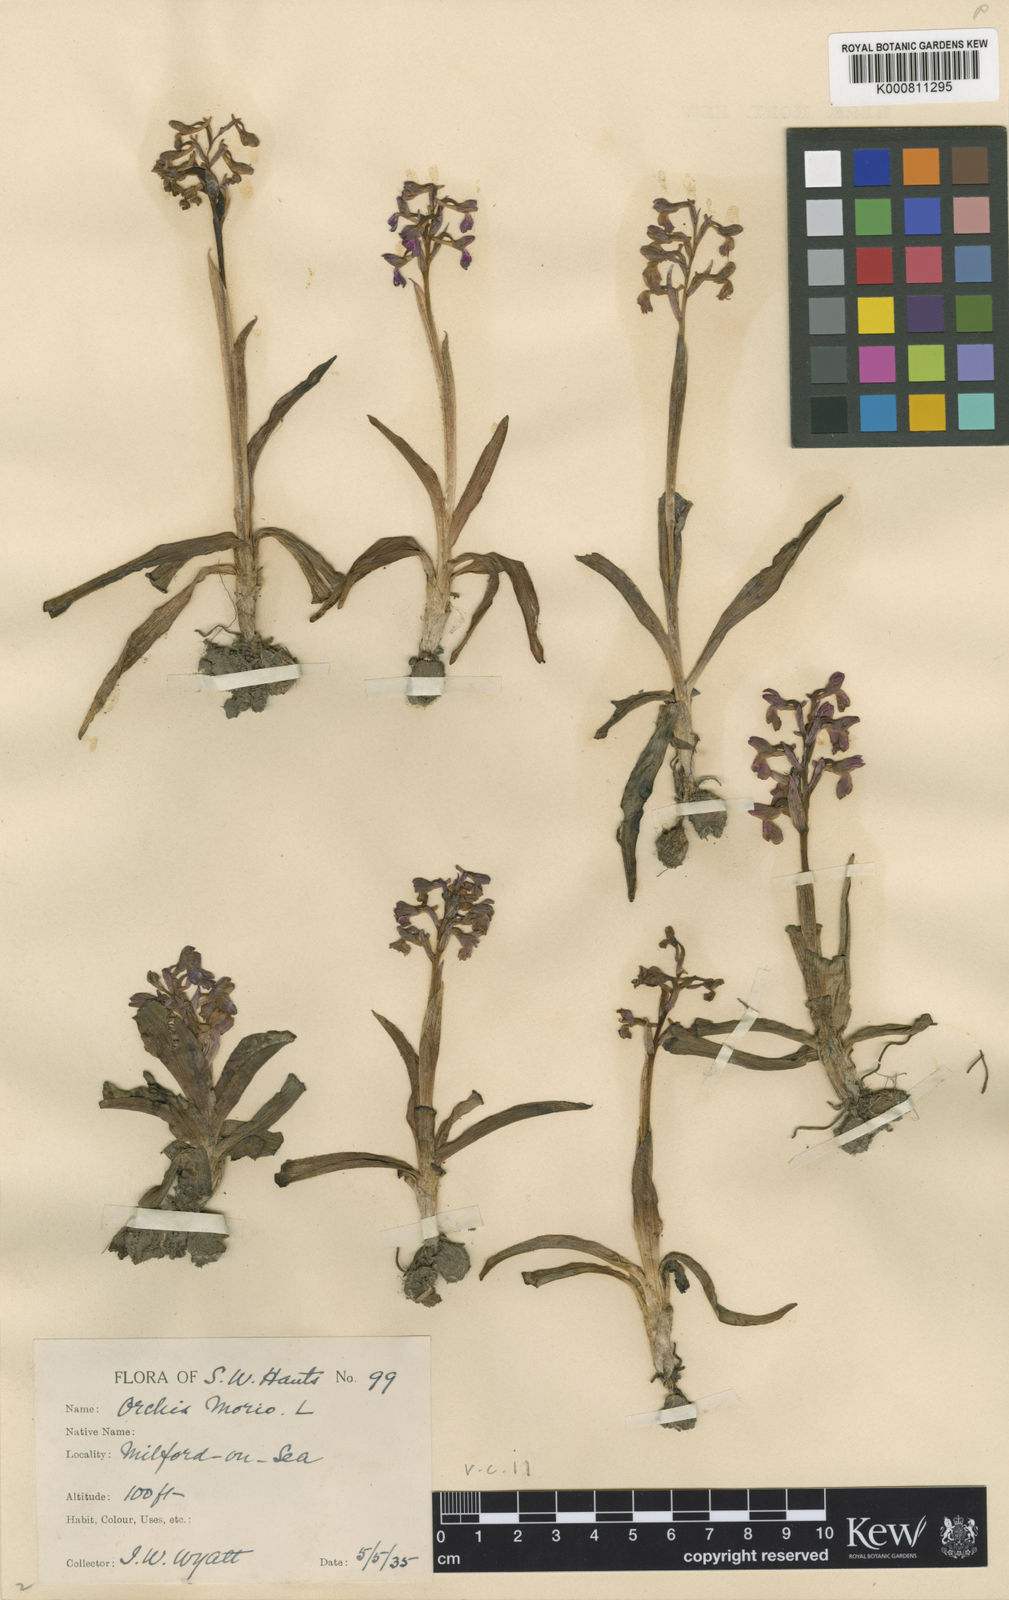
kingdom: Plantae
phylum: Tracheophyta
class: Liliopsida
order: Asparagales
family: Orchidaceae
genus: Anacamptis
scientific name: Anacamptis morio
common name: Green-winged orchid
